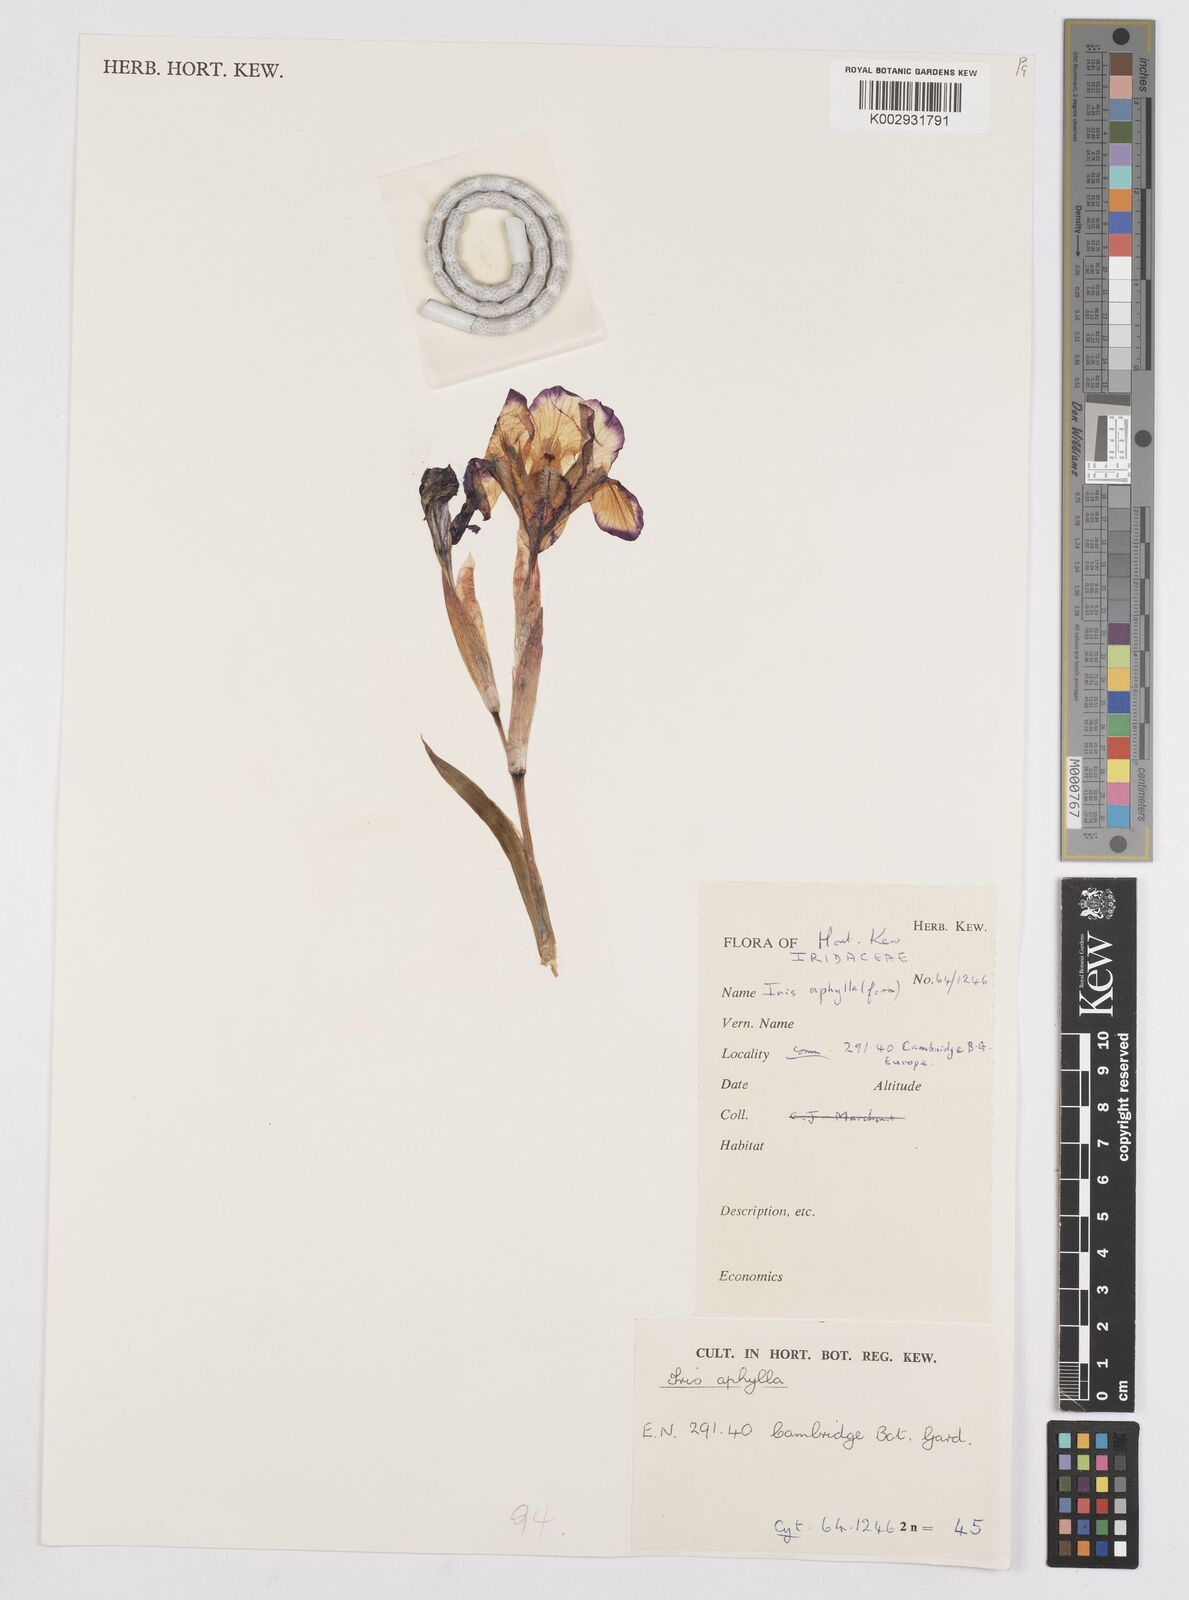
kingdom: Plantae
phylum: Tracheophyta
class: Liliopsida
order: Asparagales
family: Iridaceae
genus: Iris
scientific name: Iris aphylla
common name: Stool iris
